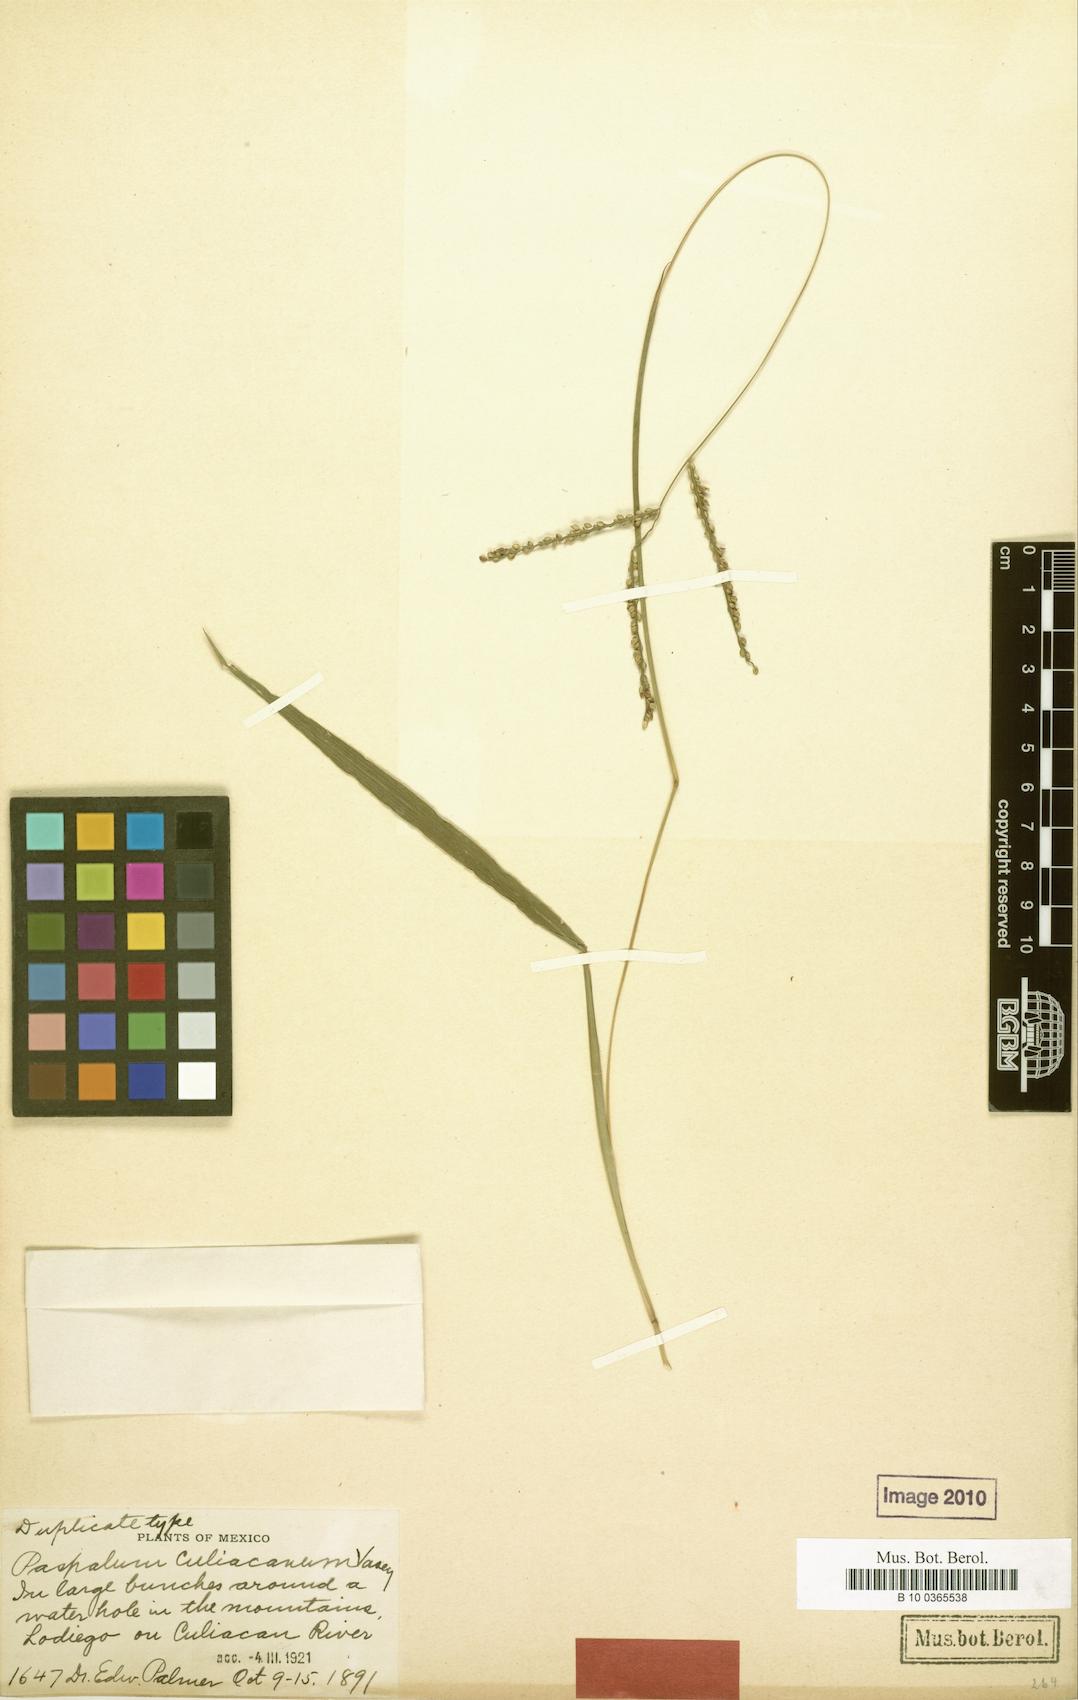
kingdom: Plantae
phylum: Tracheophyta
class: Liliopsida
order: Poales
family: Poaceae
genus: Paspalum
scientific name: Paspalum culiacanum
